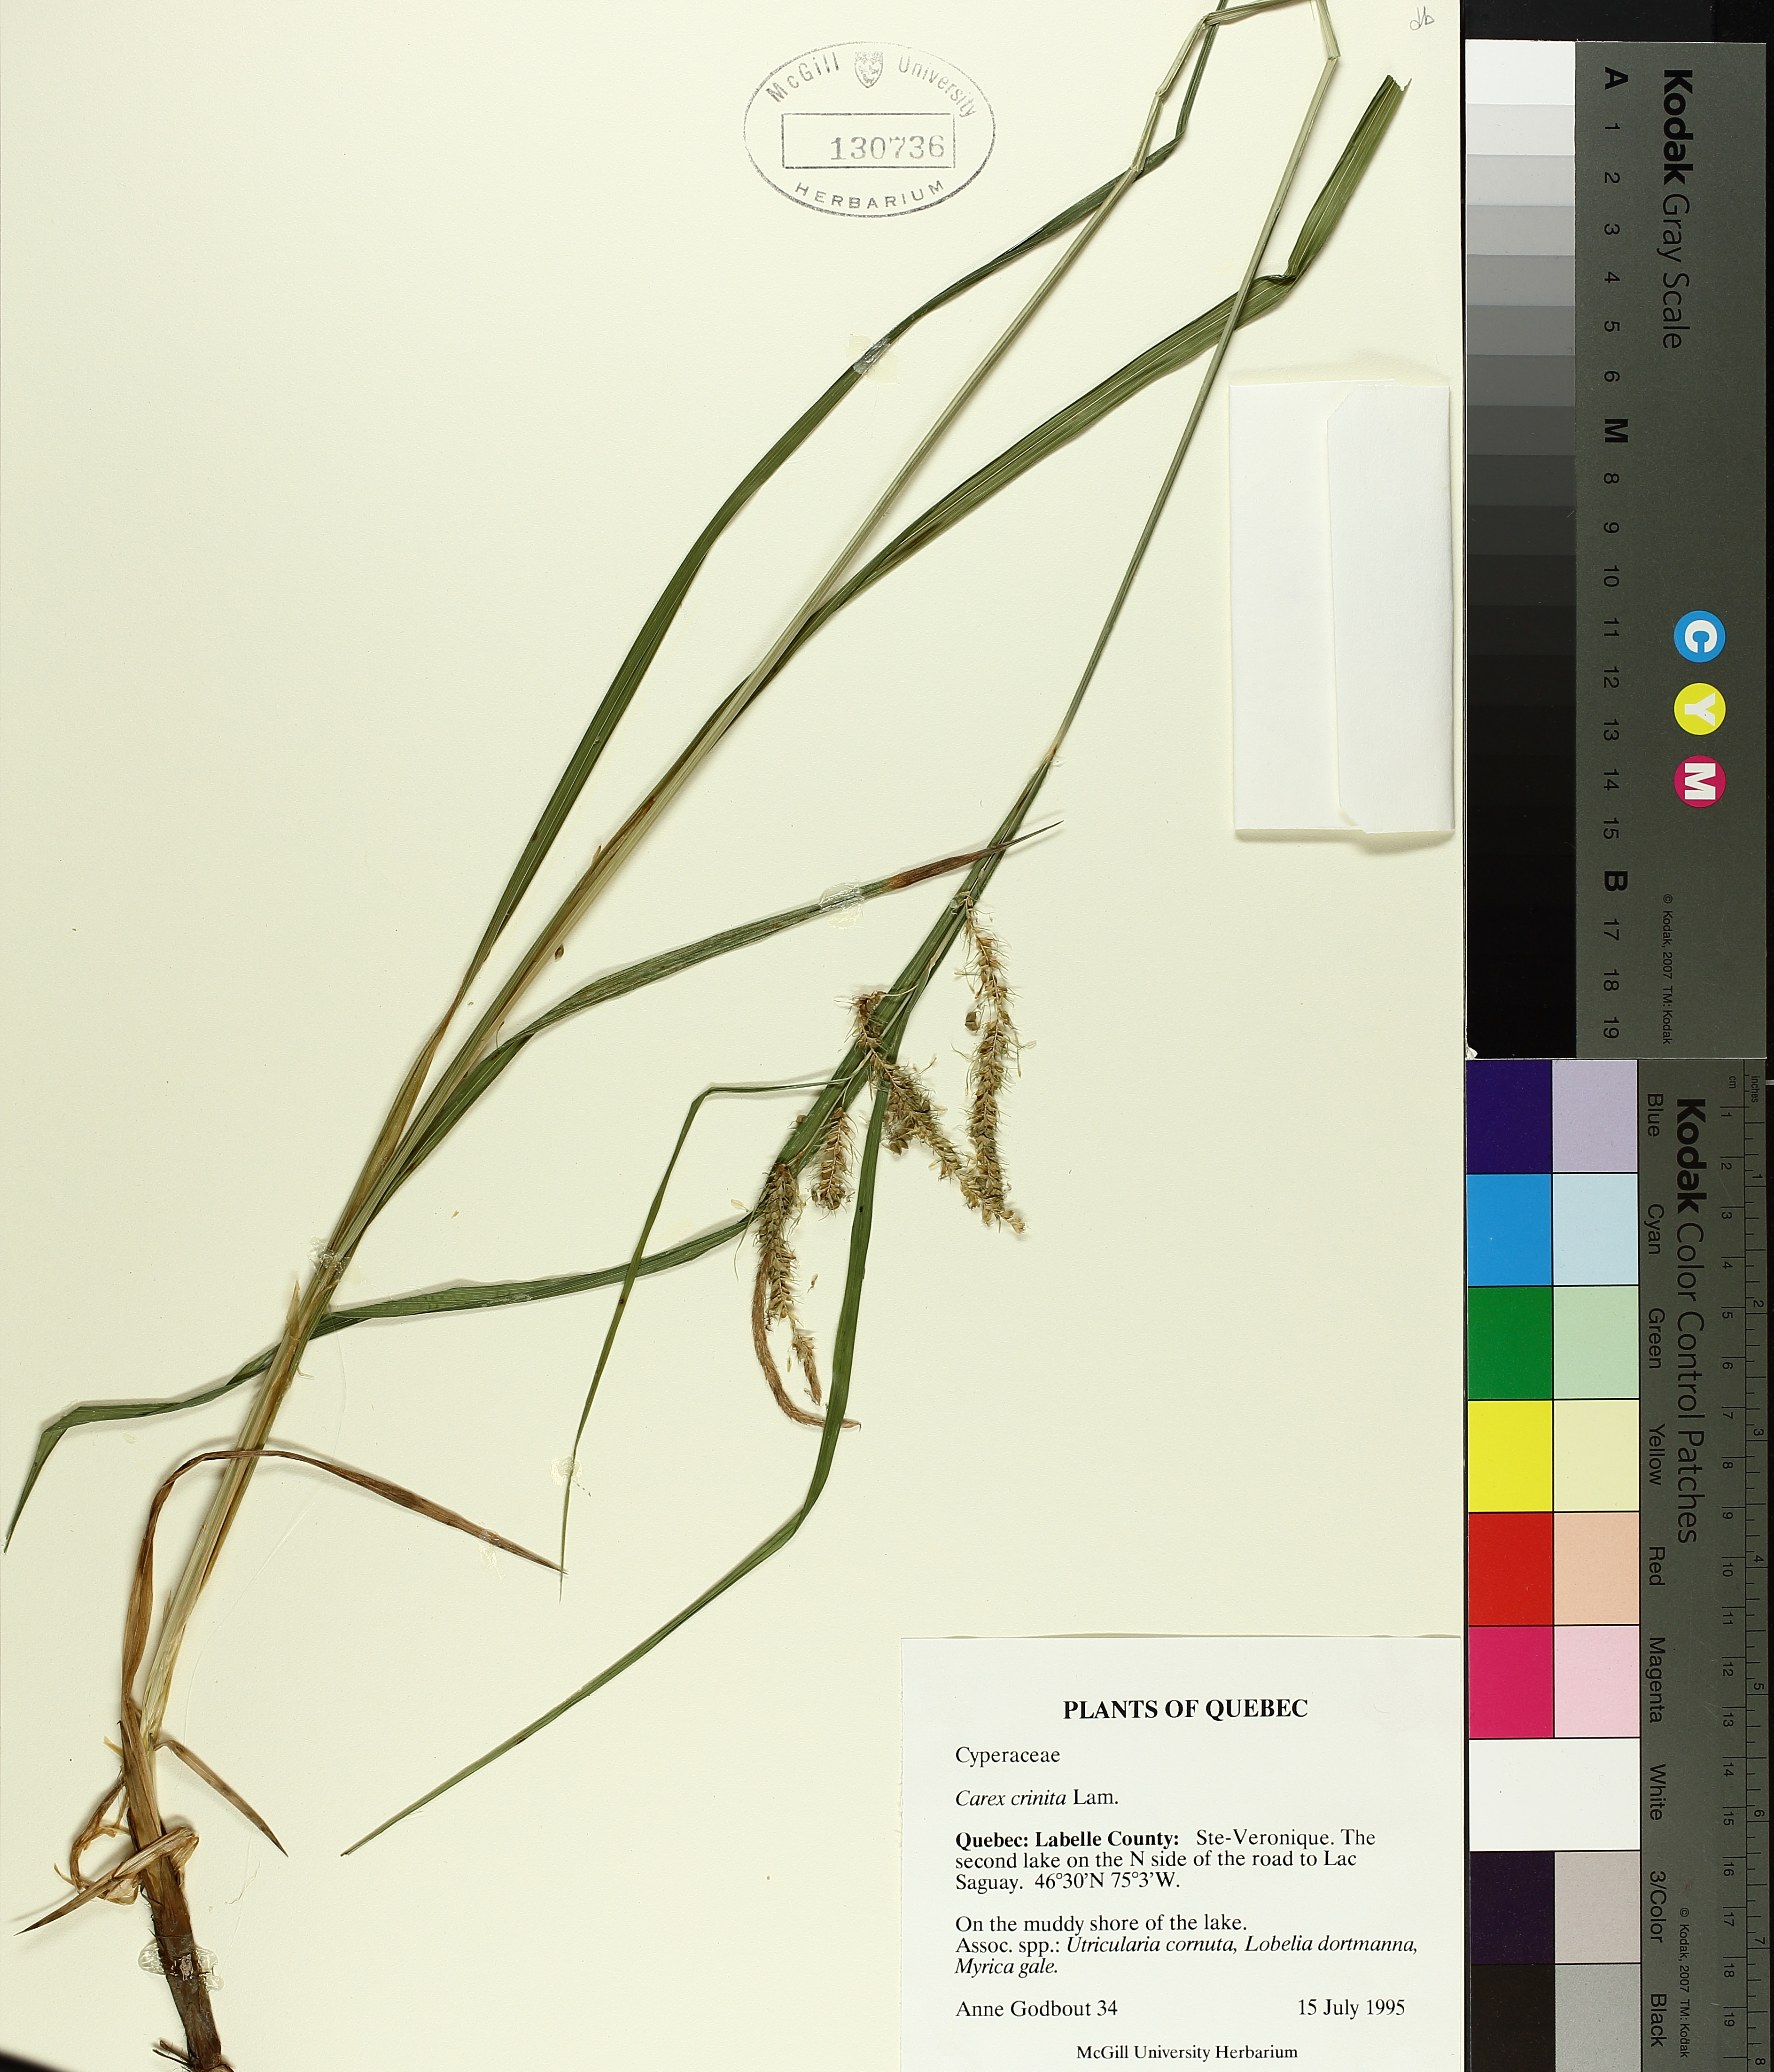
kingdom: Plantae
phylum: Tracheophyta
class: Liliopsida
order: Poales
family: Cyperaceae
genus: Carex
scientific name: Carex crinita
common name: Fringed sedge
